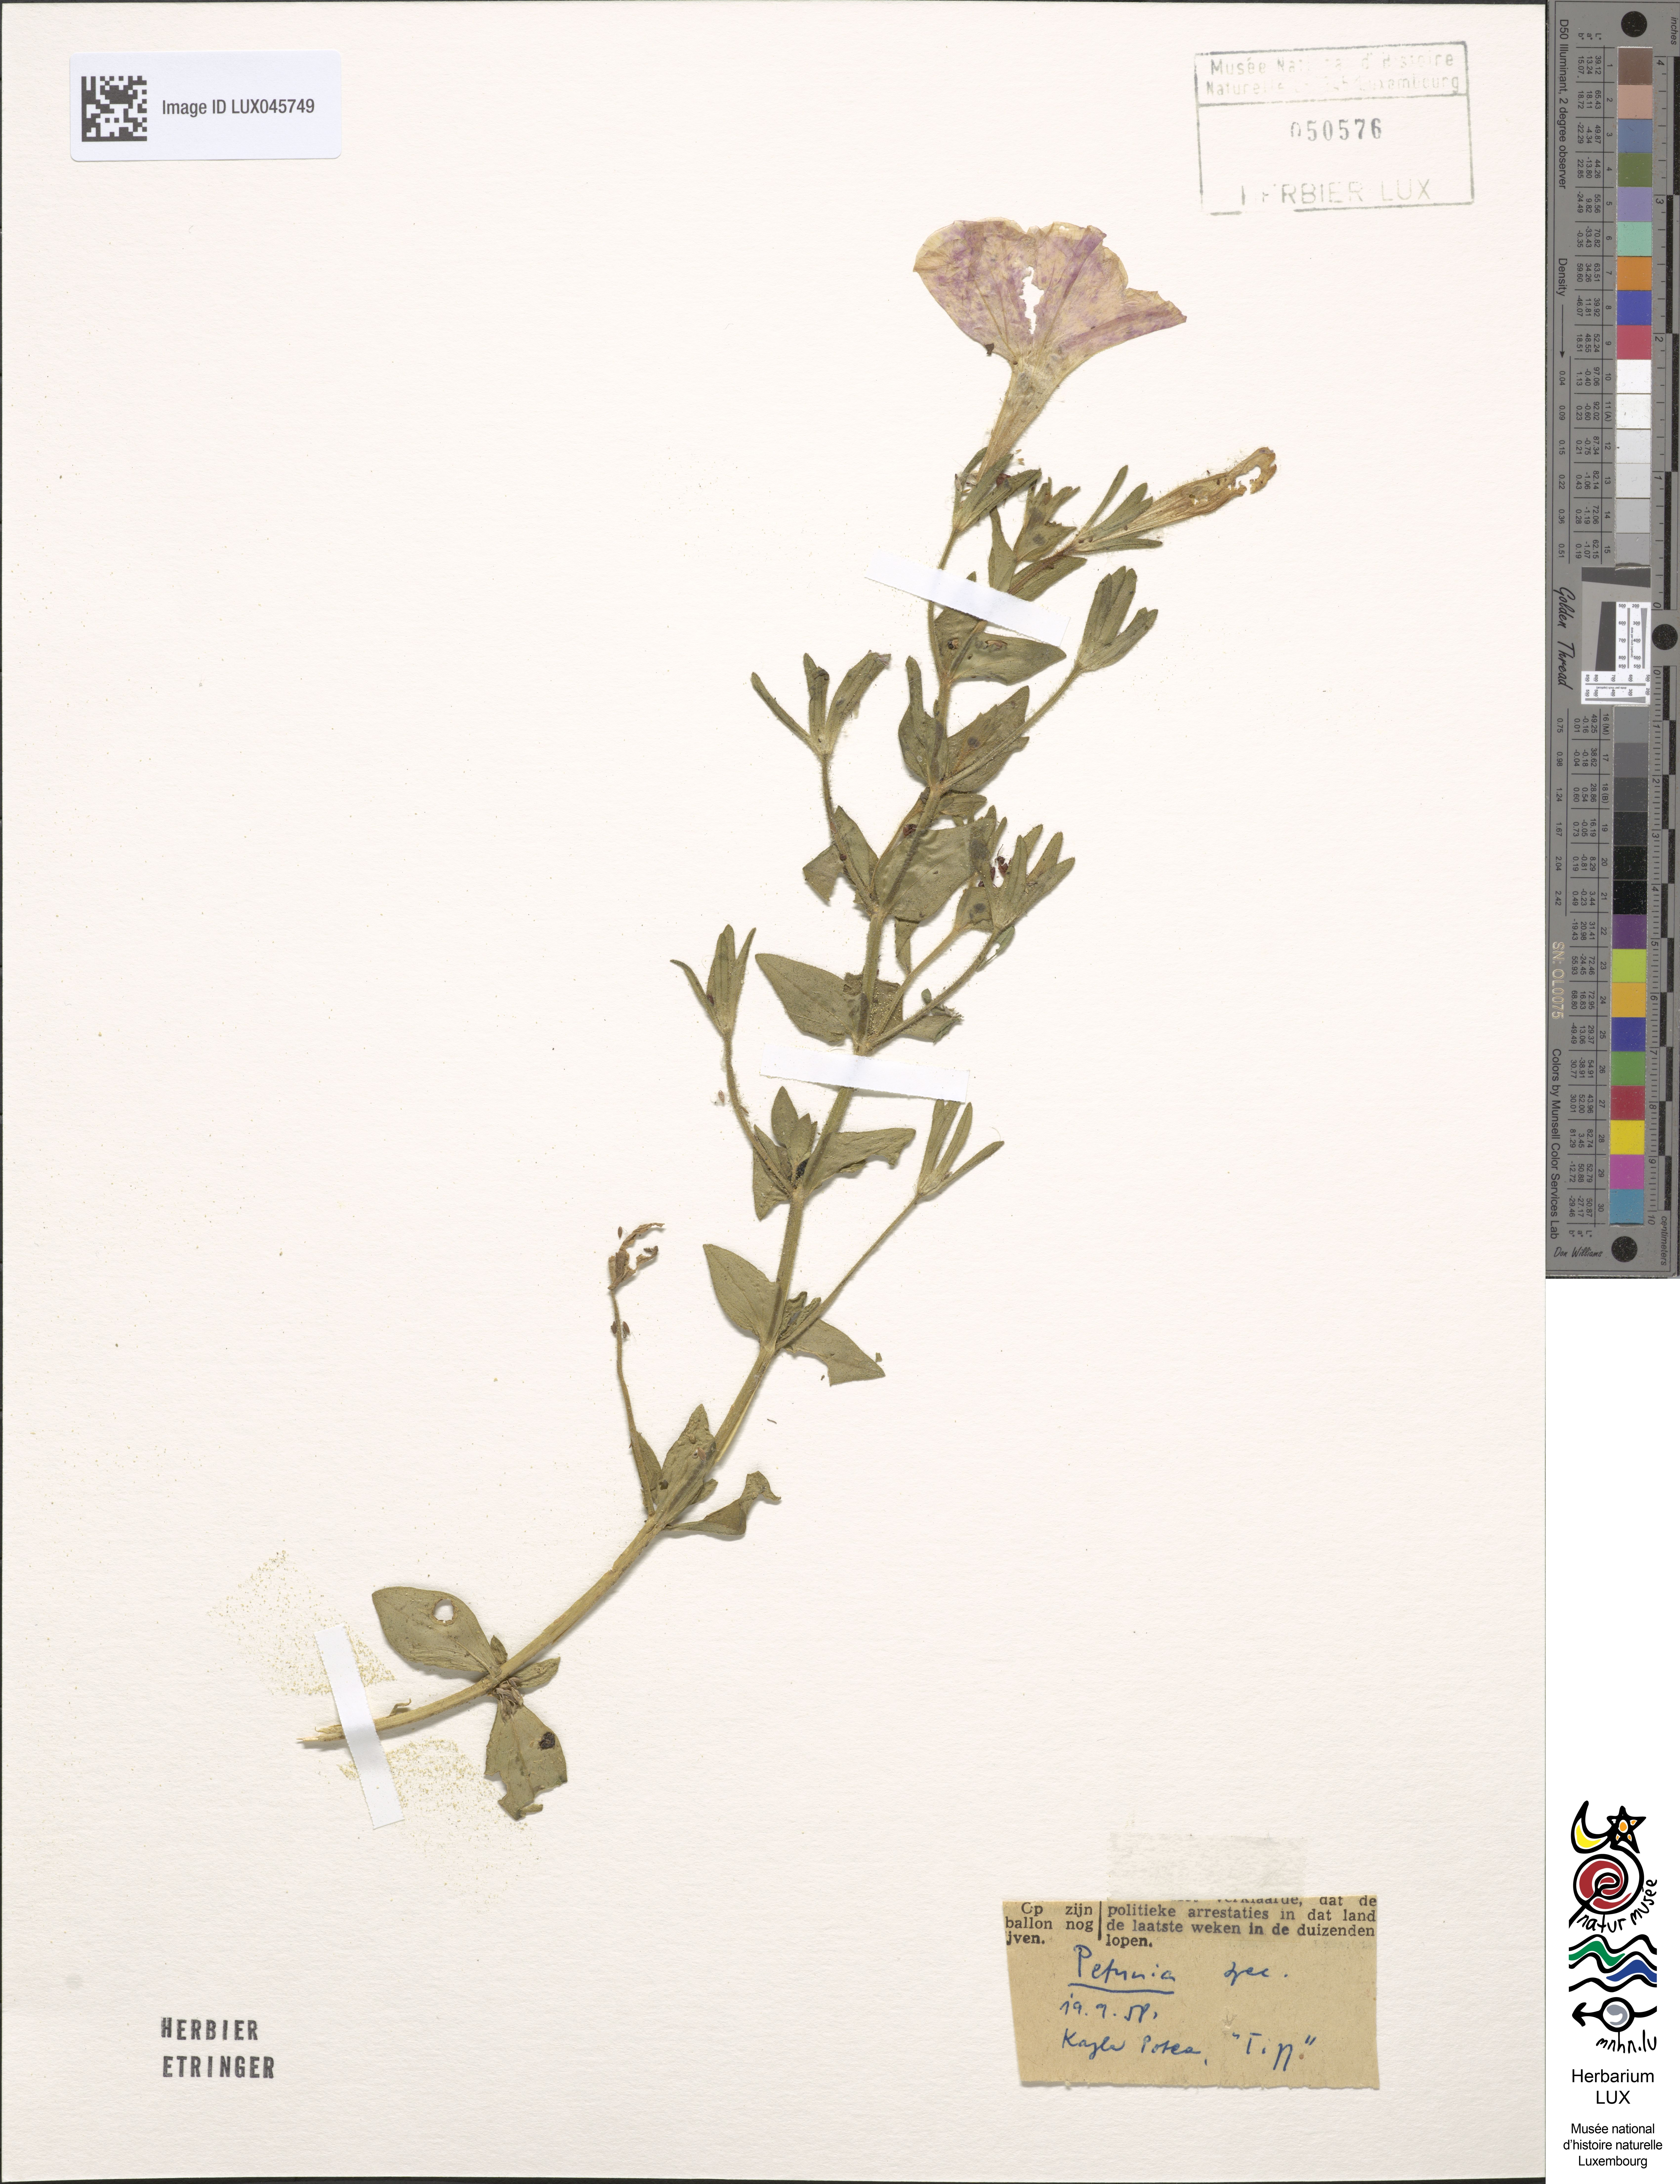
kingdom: Plantae
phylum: Tracheophyta
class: Magnoliopsida
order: Solanales
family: Solanaceae
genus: Petunia
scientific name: Petunia
